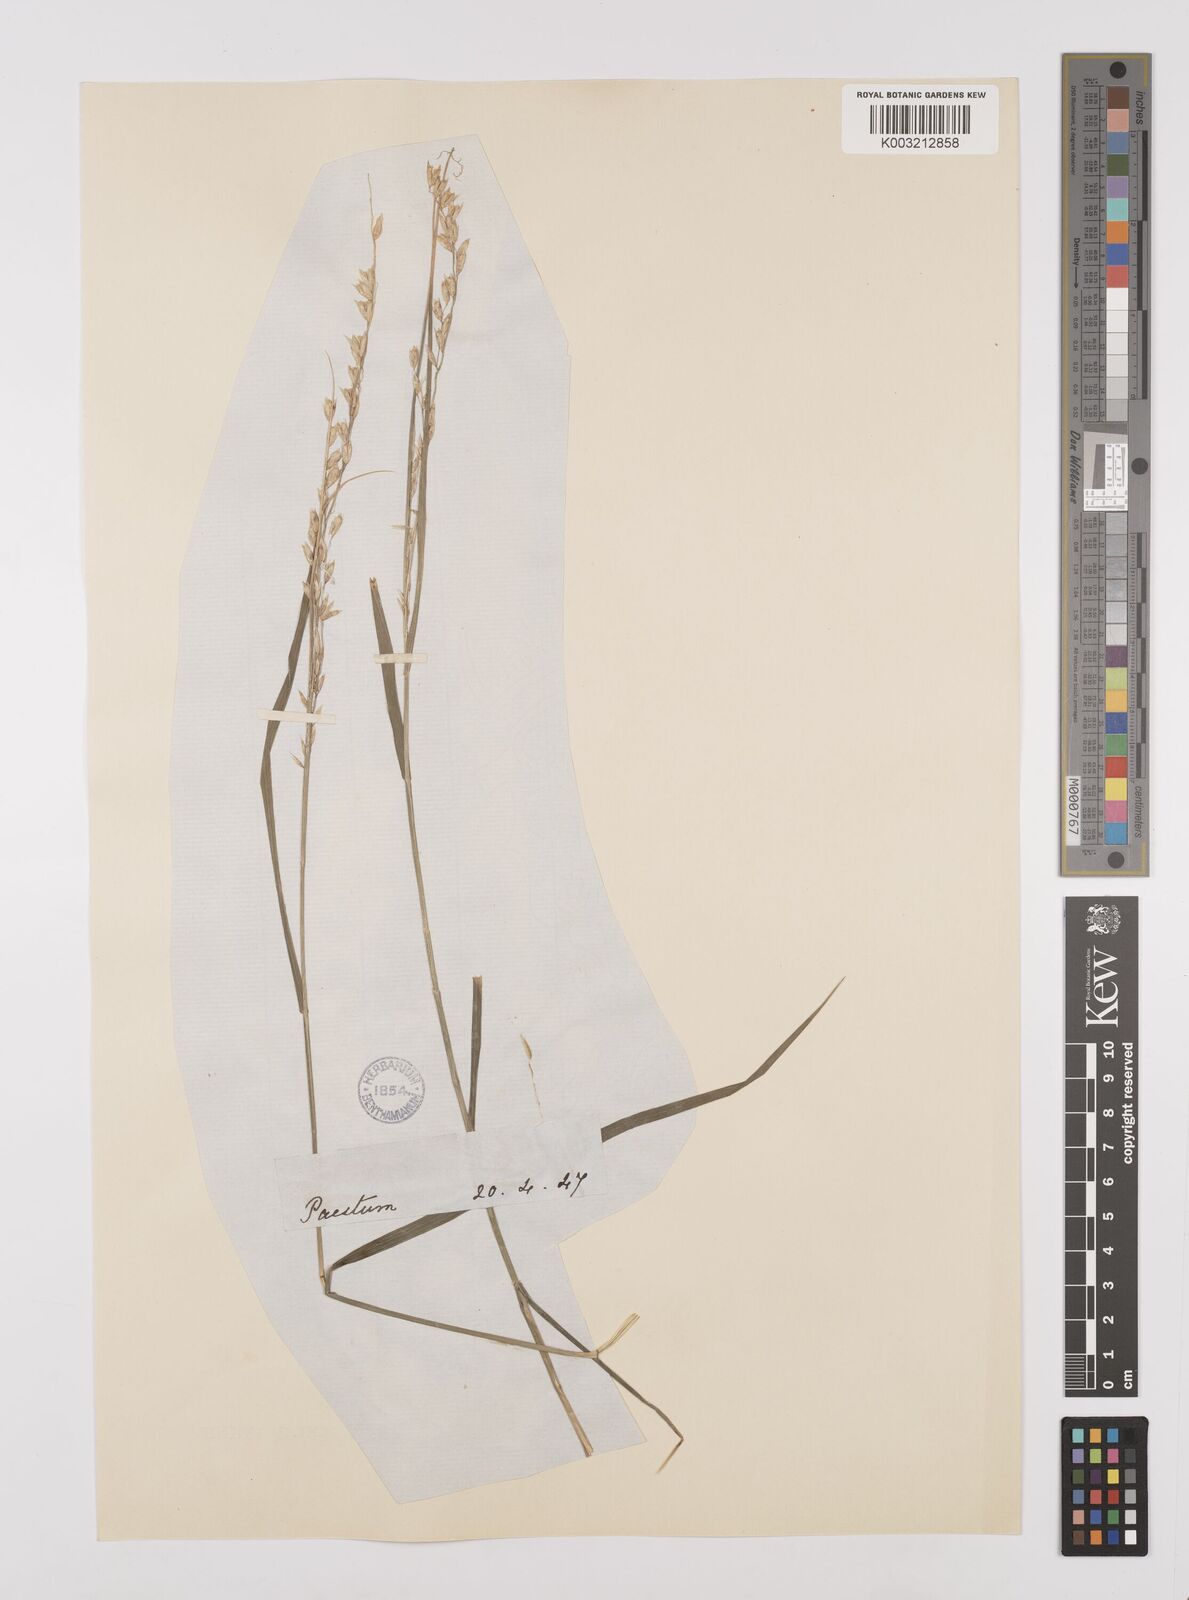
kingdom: Plantae
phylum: Tracheophyta
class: Liliopsida
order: Poales
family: Poaceae
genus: Melica
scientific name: Melica minuta
